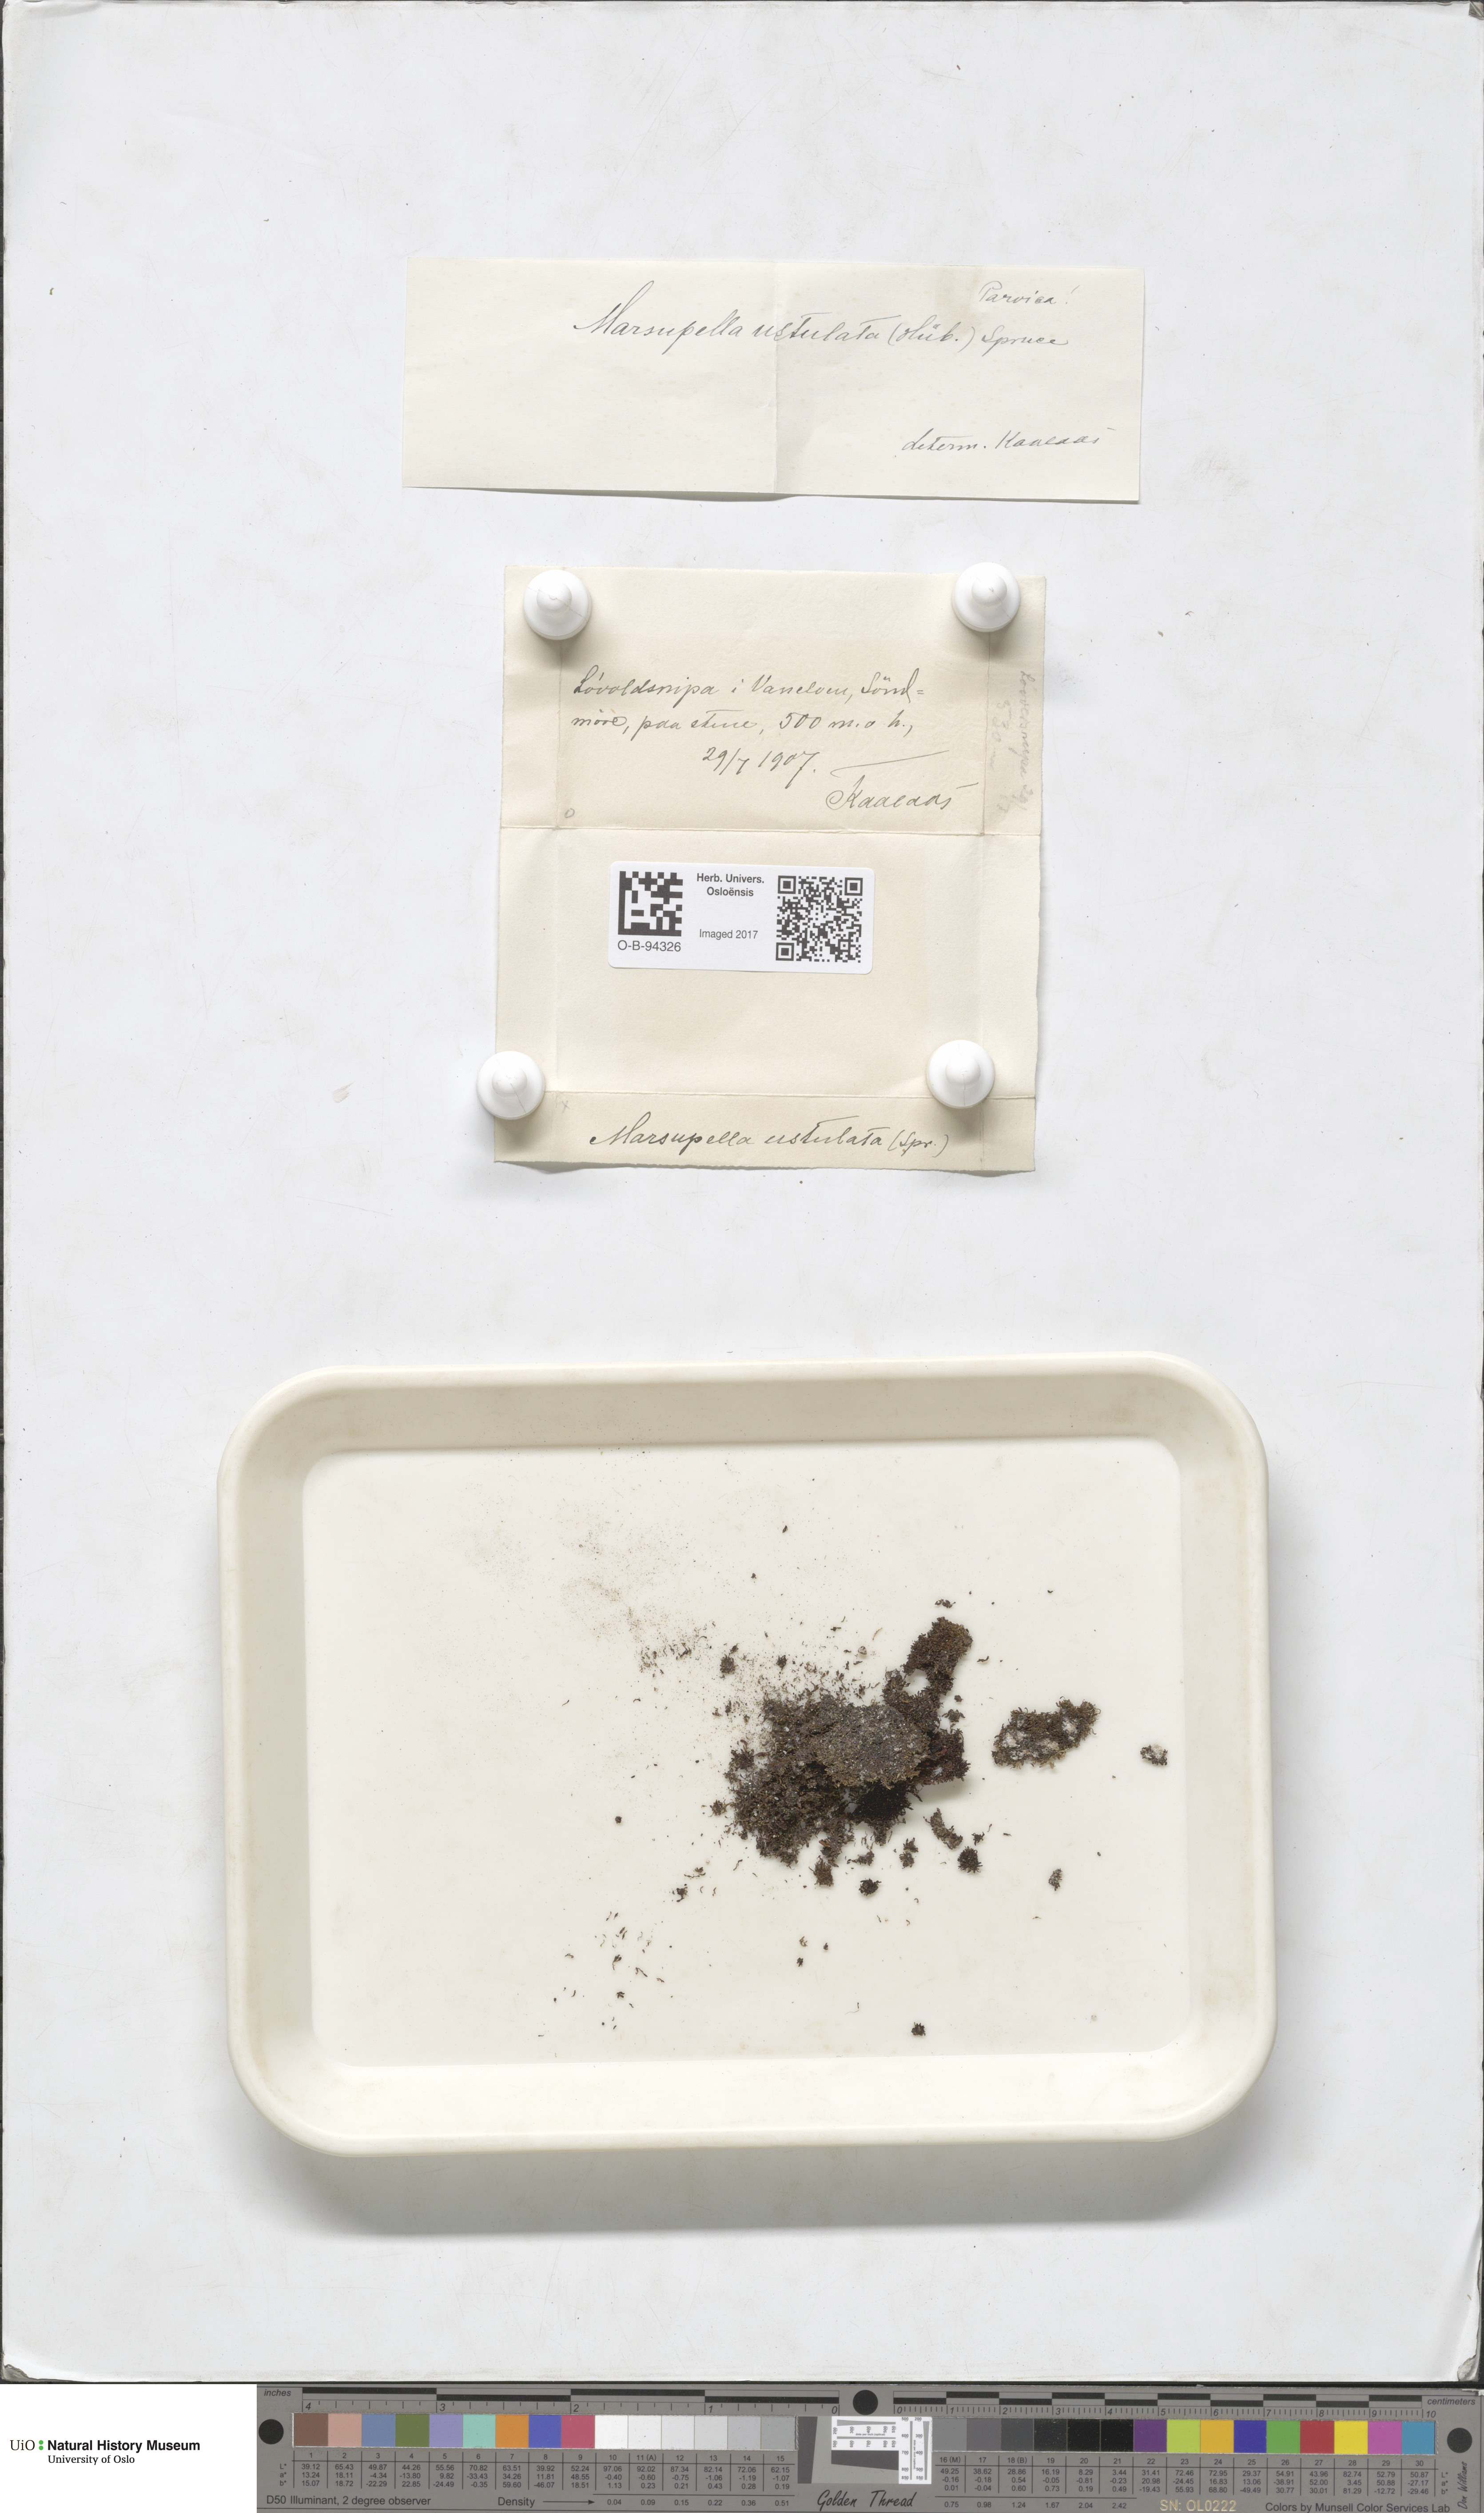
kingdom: Plantae
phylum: Marchantiophyta
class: Jungermanniopsida
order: Jungermanniales
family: Gymnomitriaceae
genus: Marsupella
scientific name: Marsupella sprucei
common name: Spruce s rustwort
